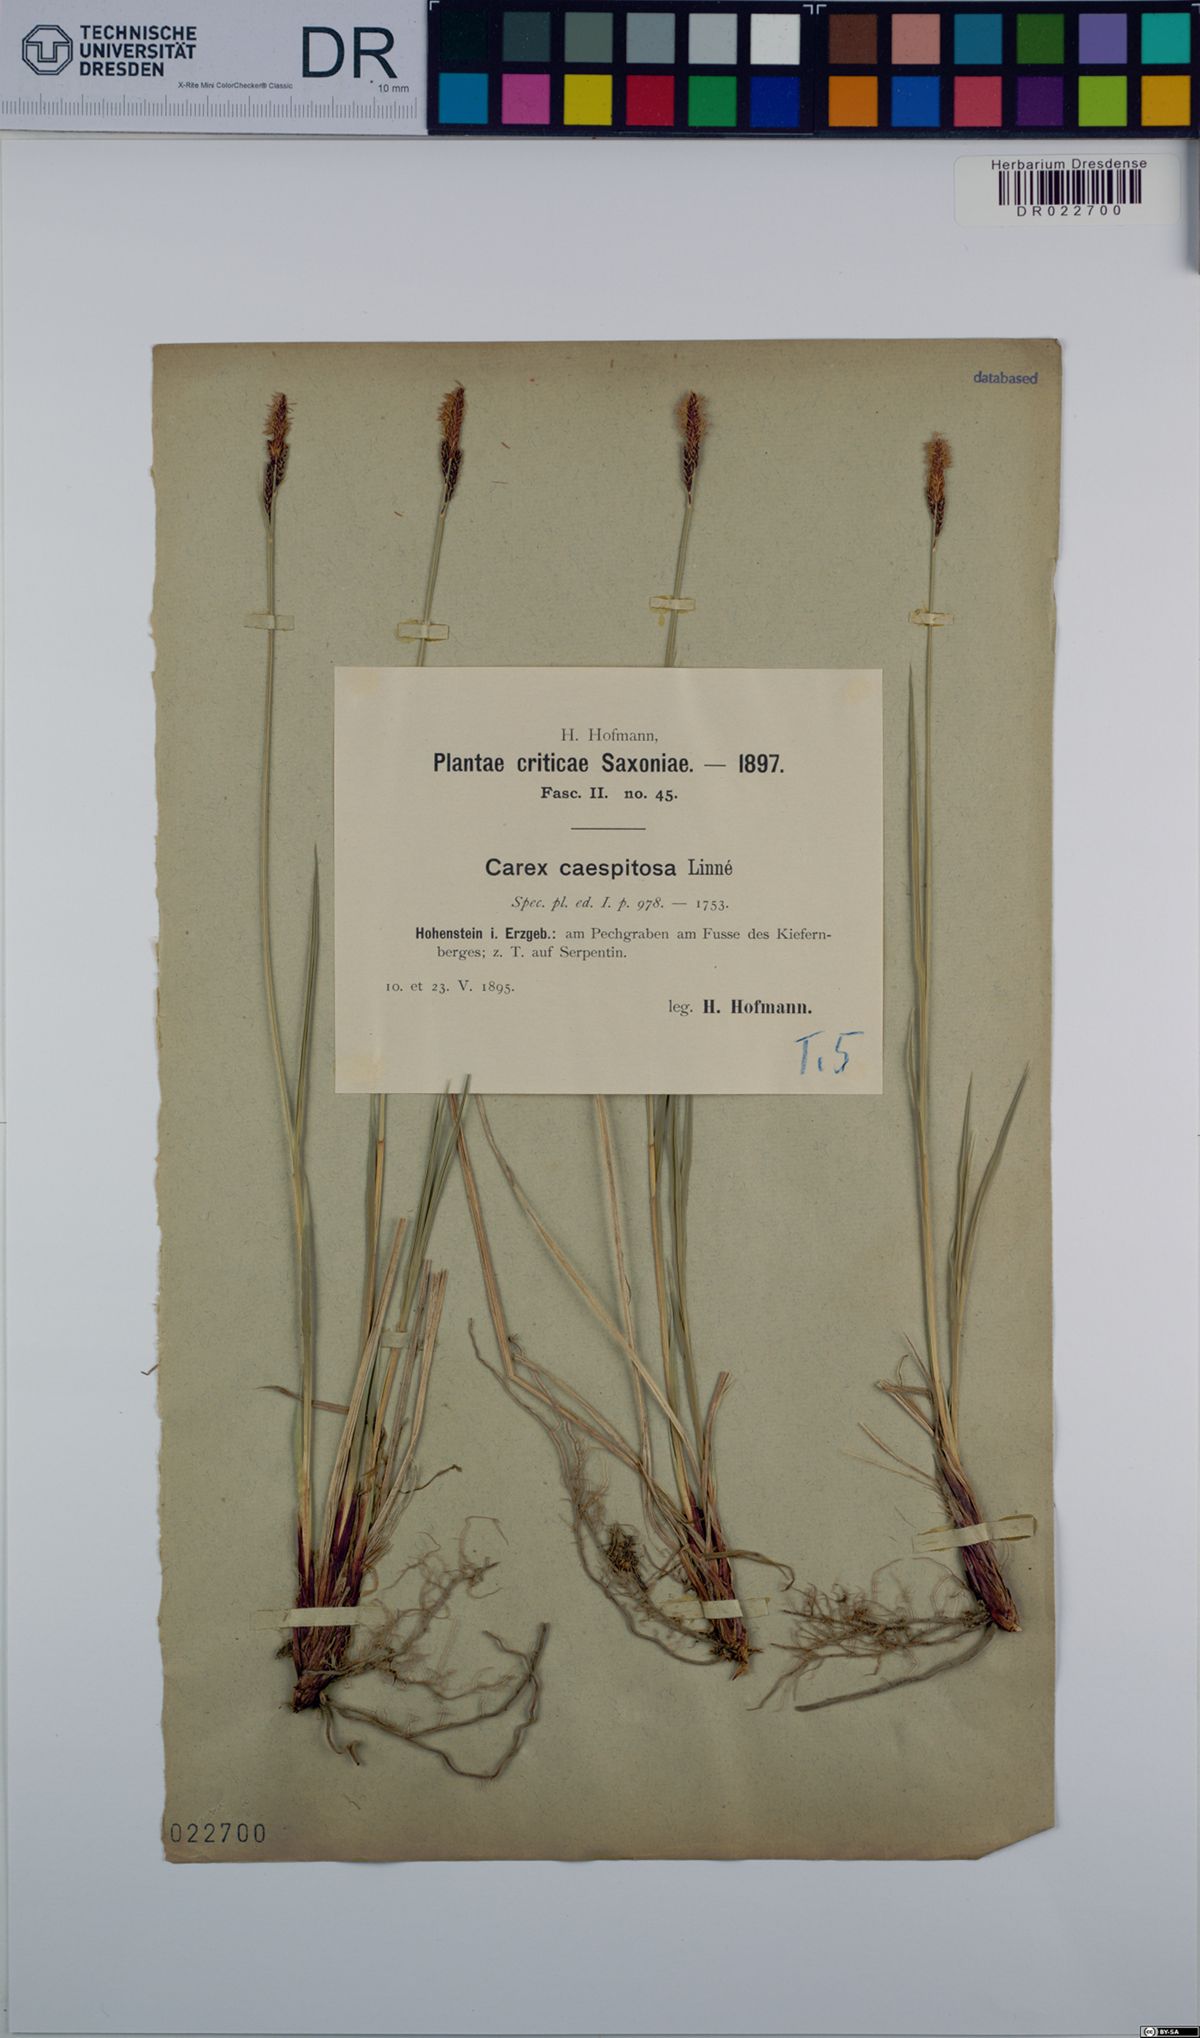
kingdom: Plantae
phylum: Tracheophyta
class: Liliopsida
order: Poales
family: Cyperaceae
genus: Carex
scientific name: Carex cespitosa
